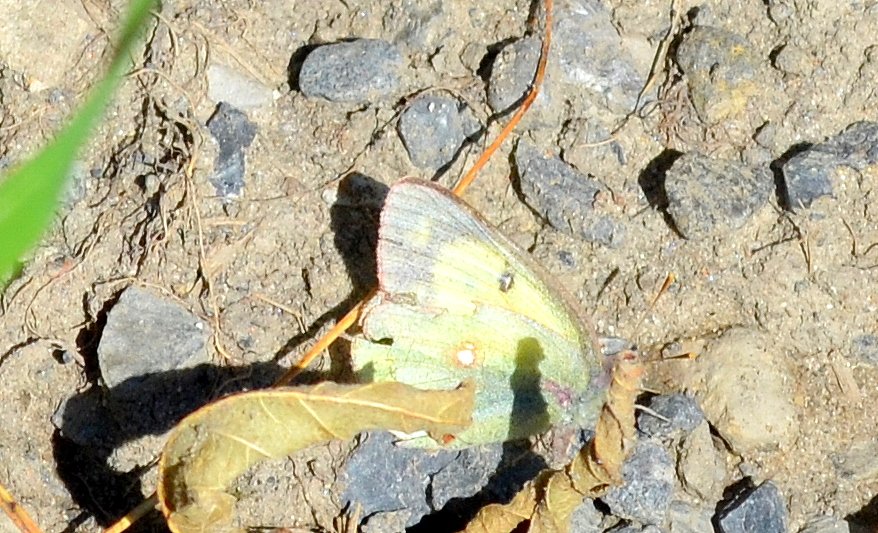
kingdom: Animalia
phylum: Arthropoda
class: Insecta
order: Lepidoptera
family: Pieridae
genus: Colias
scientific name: Colias philodice
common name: Clouded Sulphur
